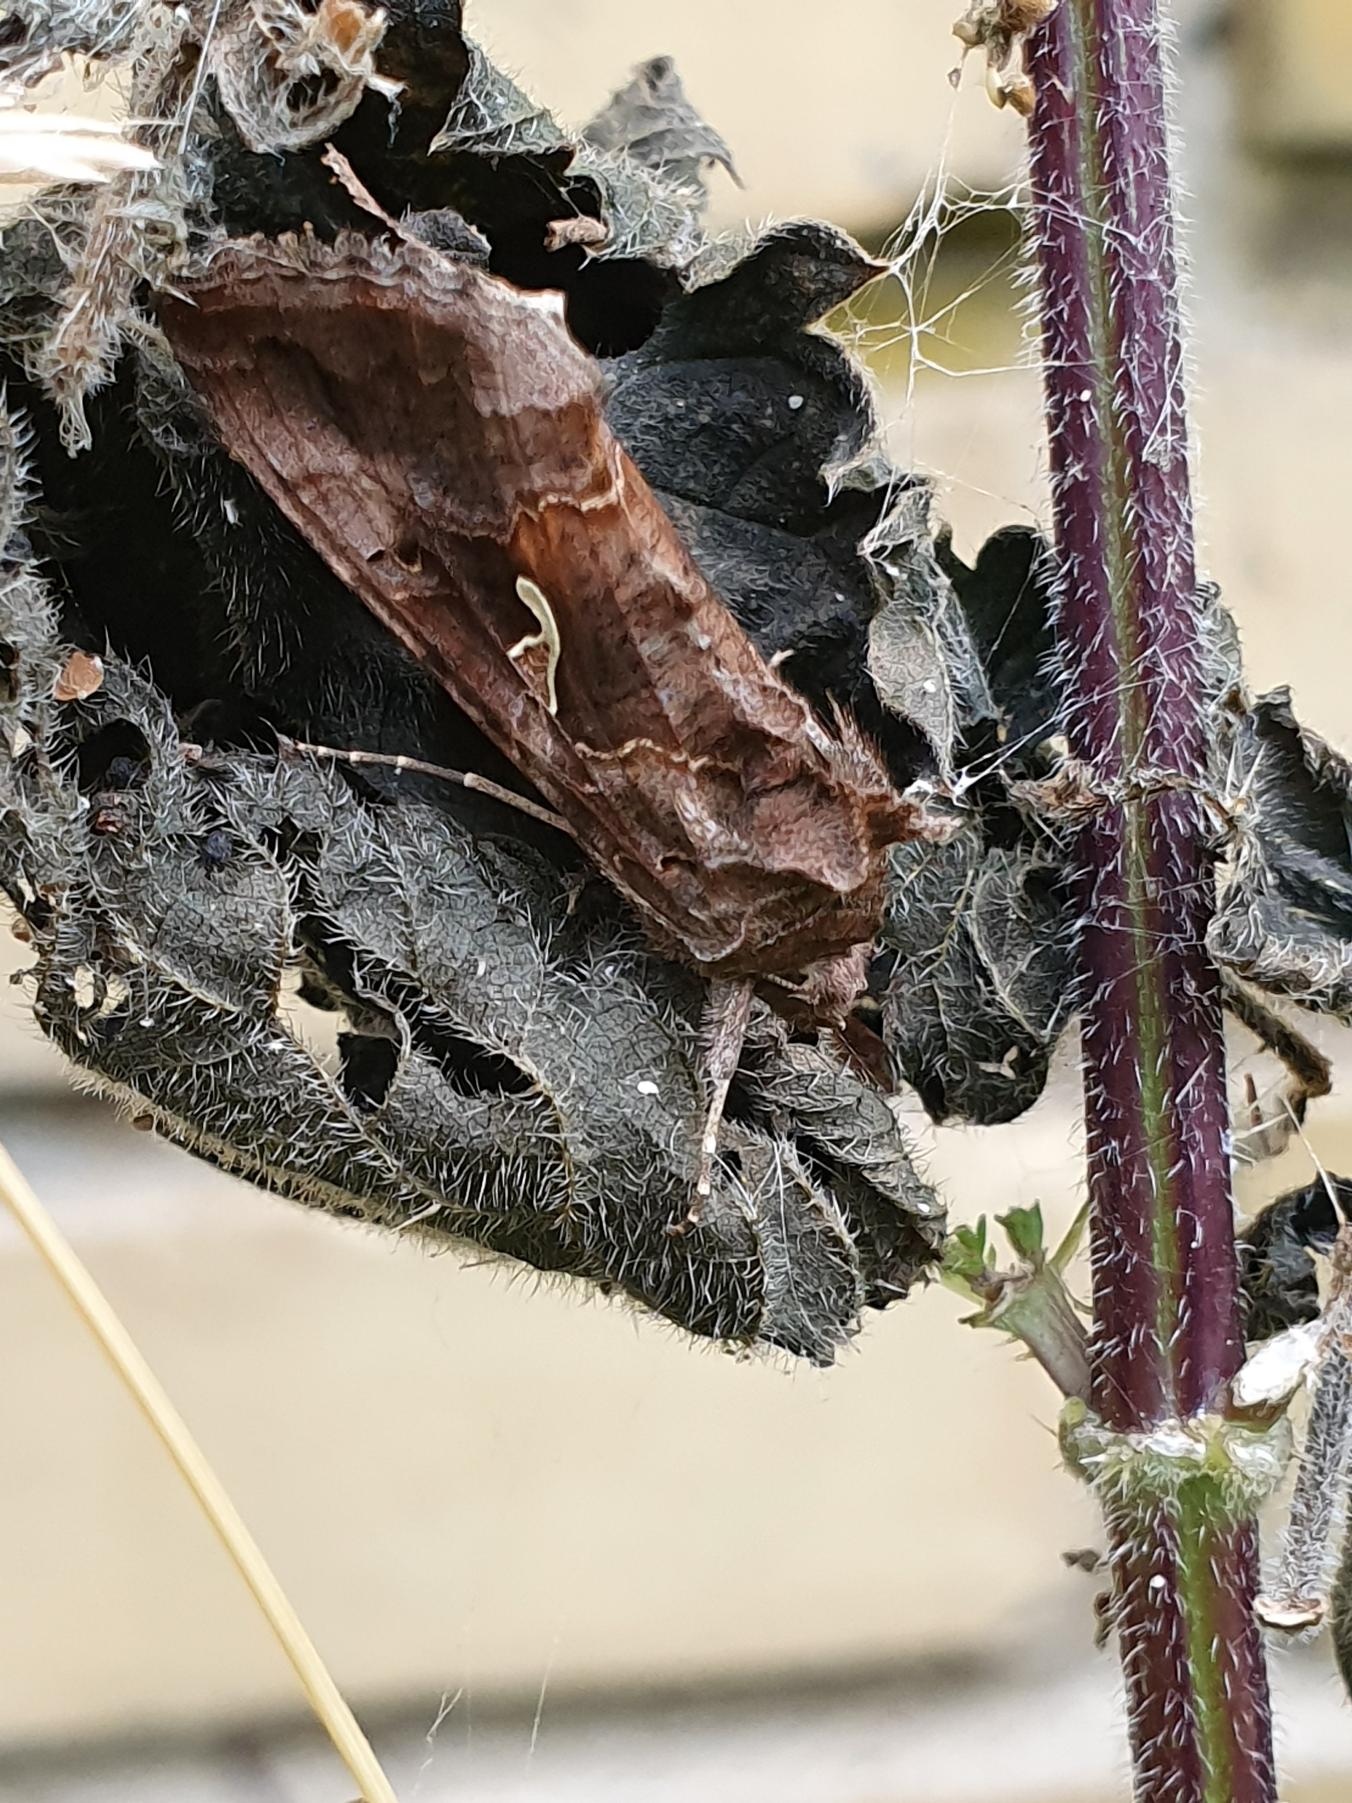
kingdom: Animalia
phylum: Arthropoda
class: Insecta
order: Lepidoptera
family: Noctuidae
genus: Autographa
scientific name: Autographa gamma
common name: Gammaugle
